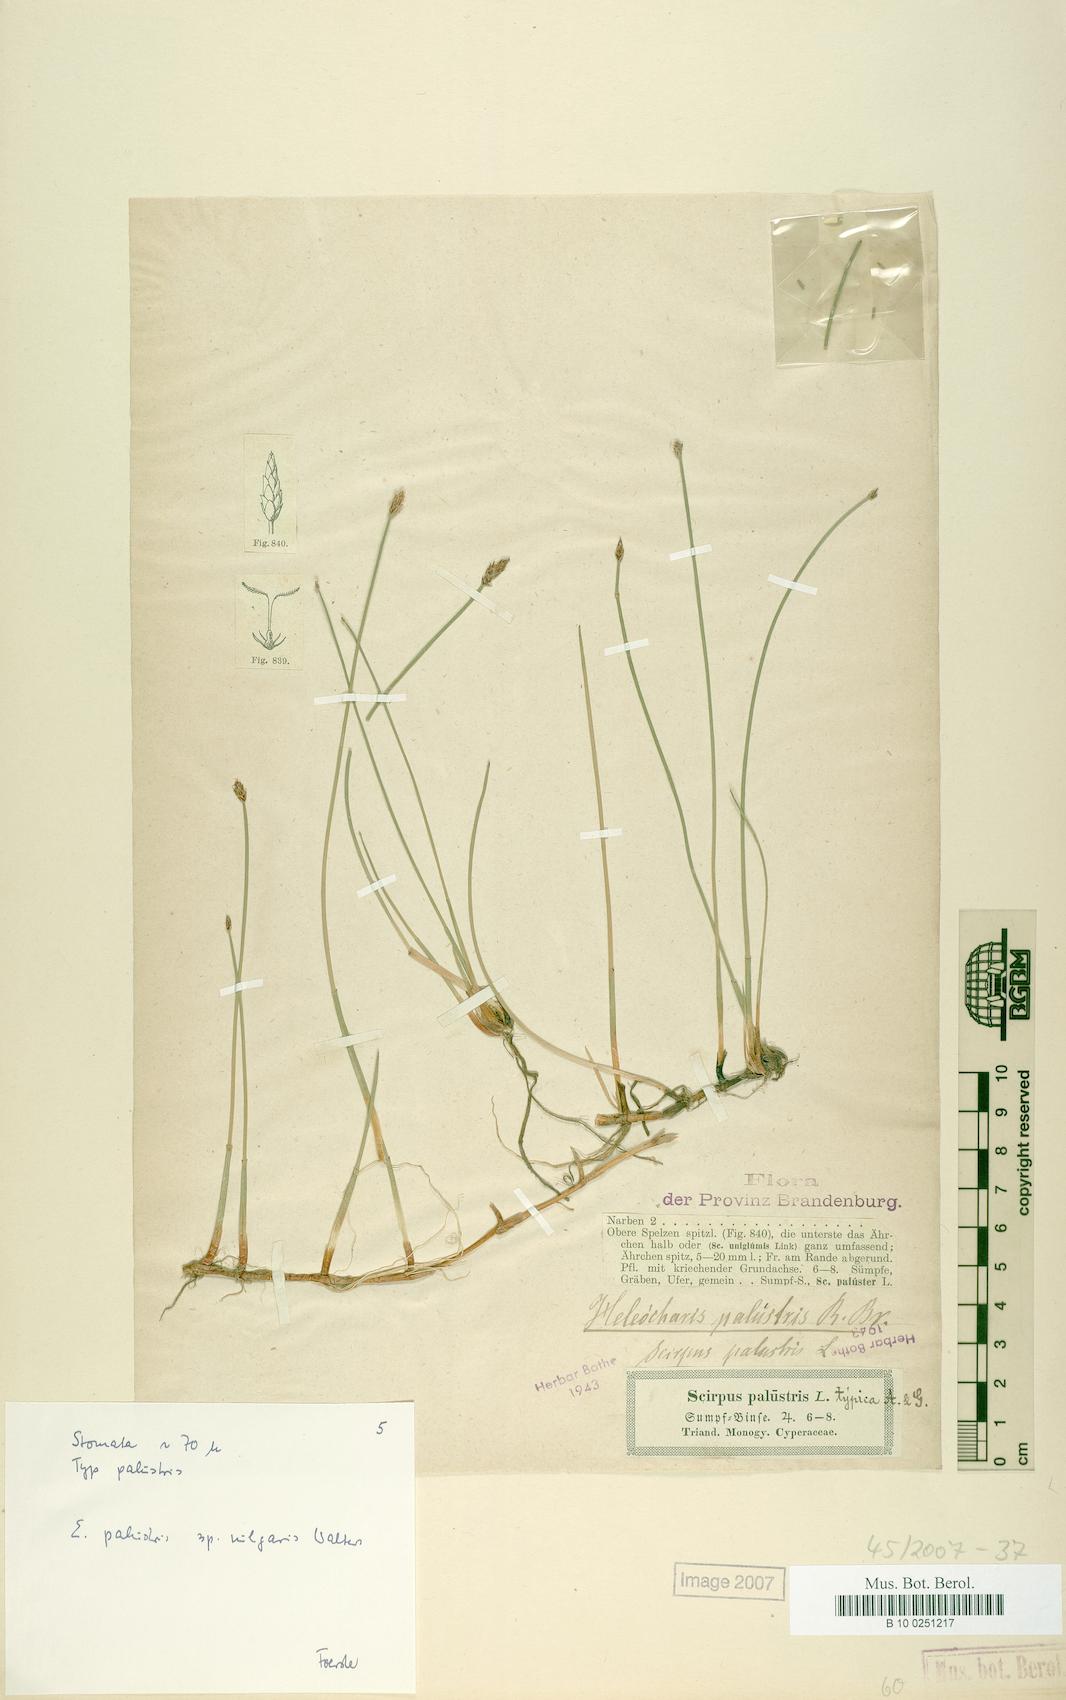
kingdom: Plantae
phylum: Tracheophyta
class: Liliopsida
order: Poales
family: Cyperaceae
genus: Eleocharis
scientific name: Eleocharis palustris
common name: Common spike-rush
